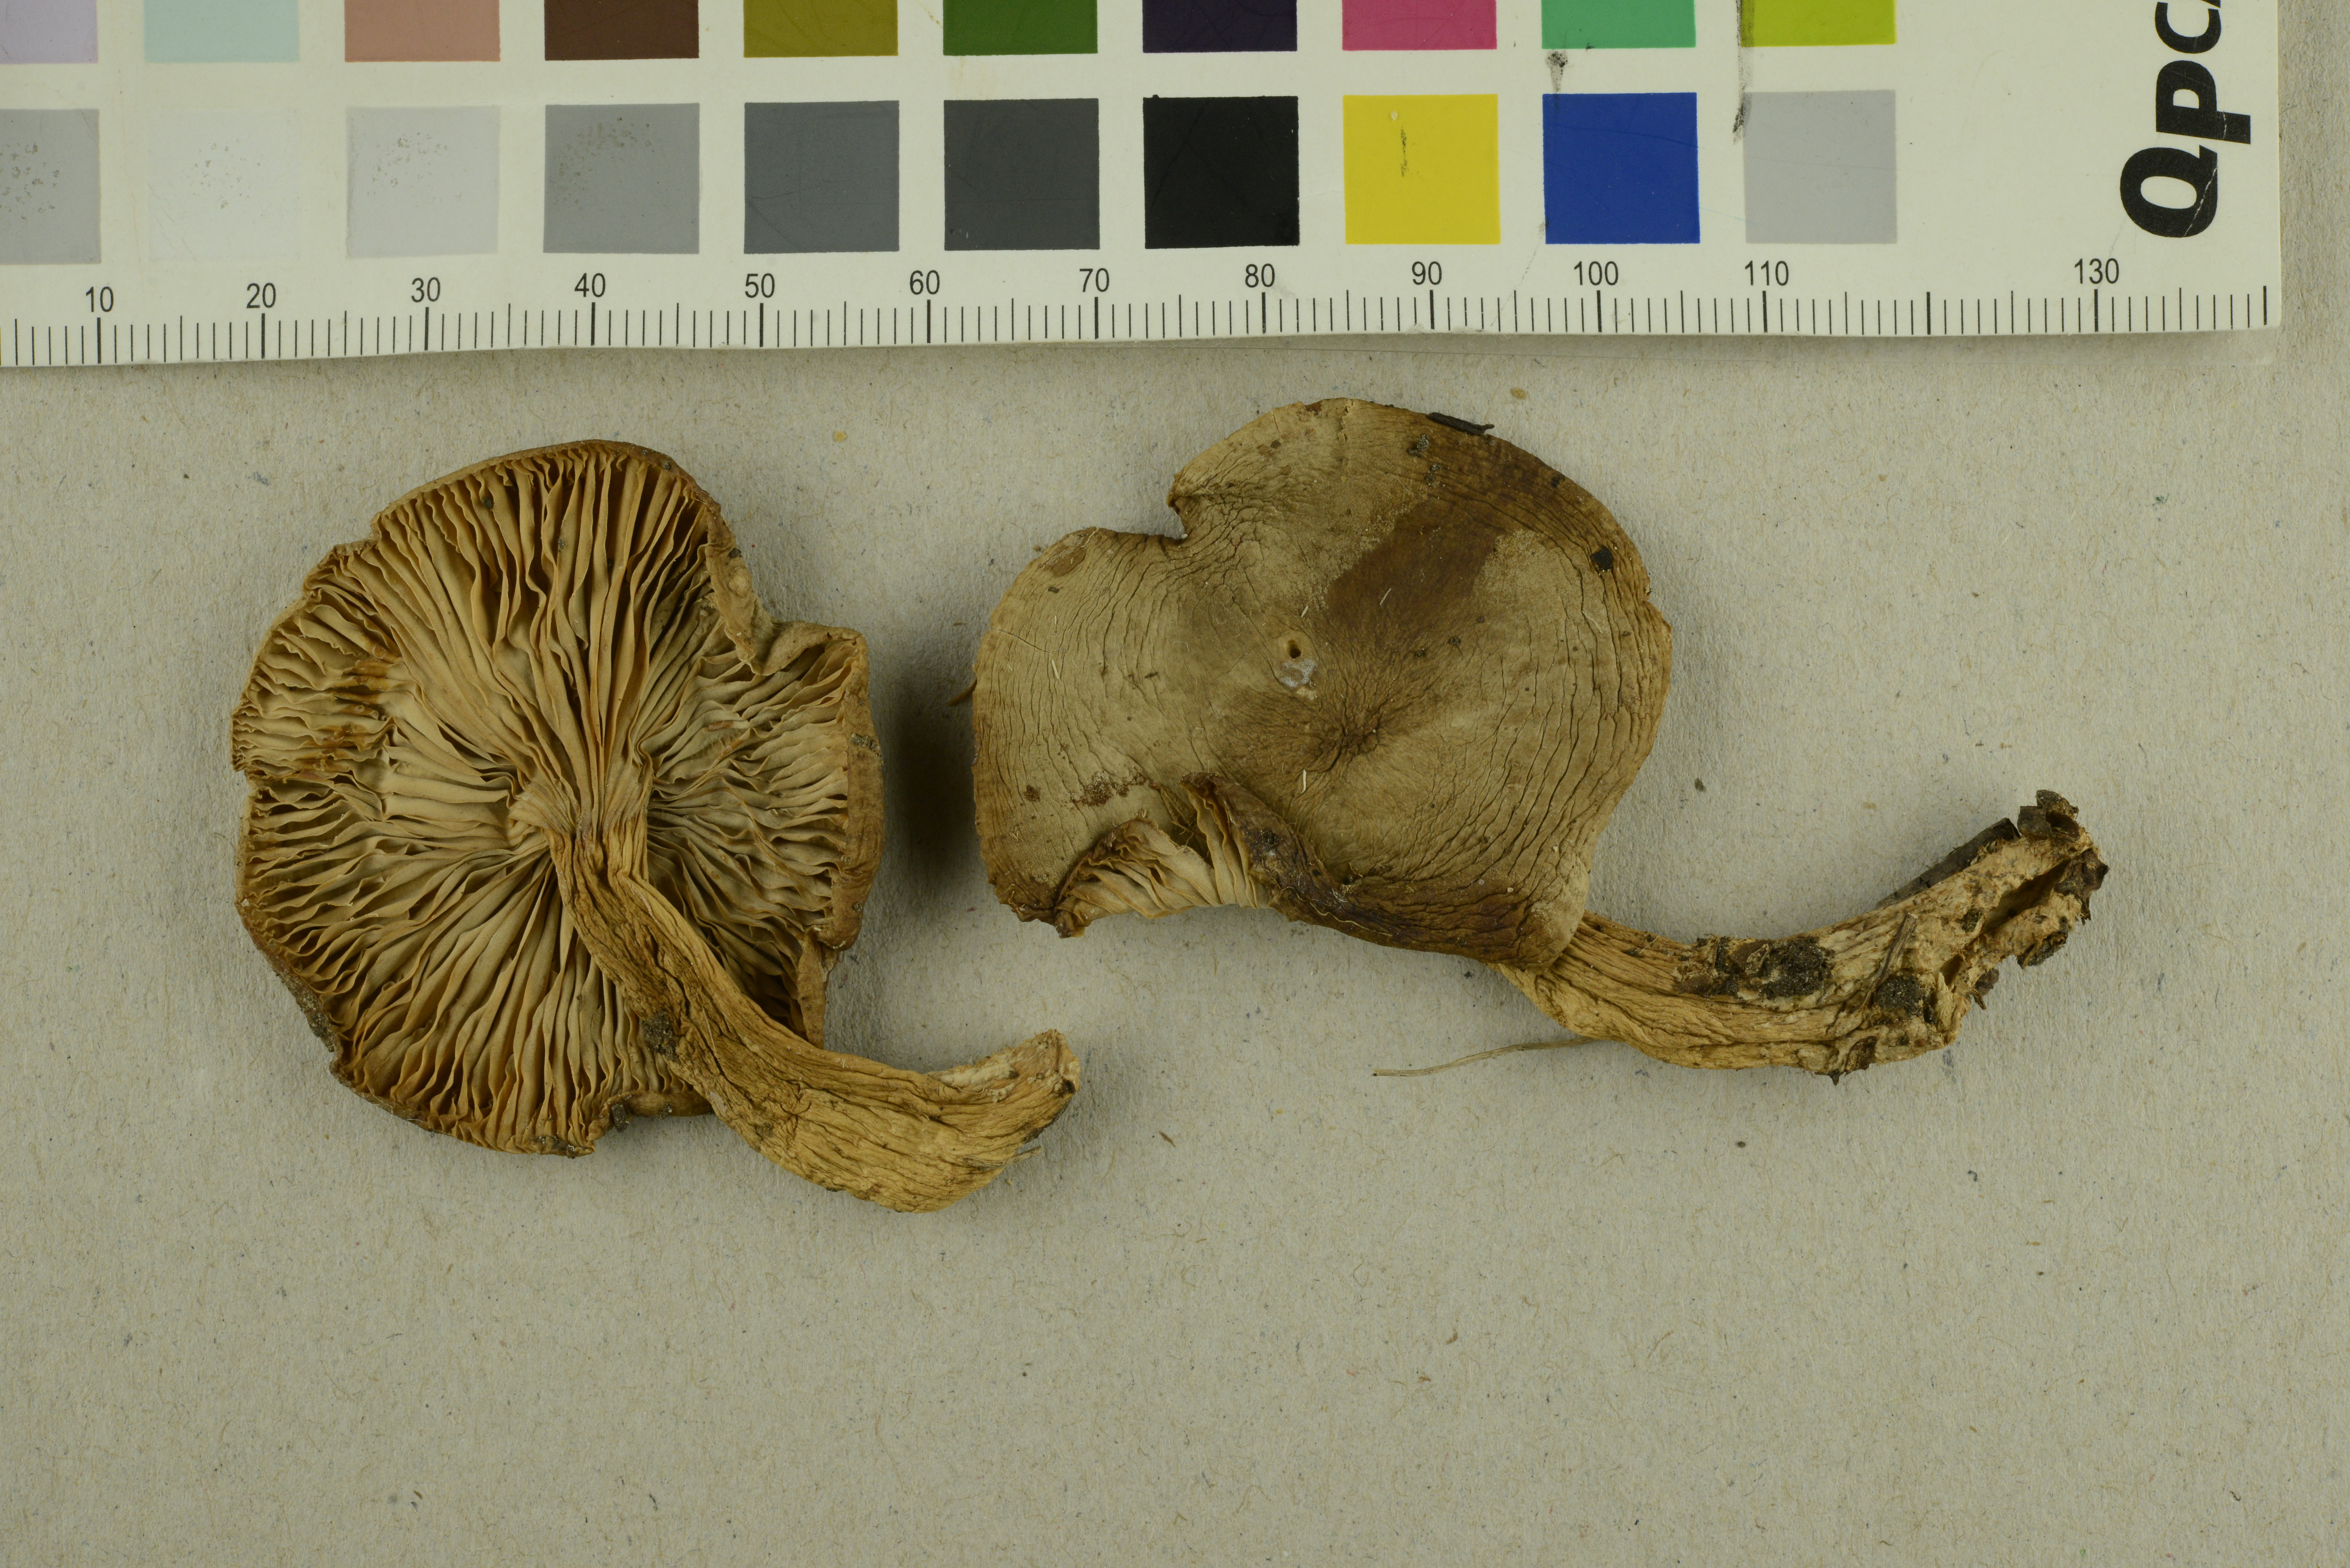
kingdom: Fungi
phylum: Basidiomycota
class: Agaricomycetes
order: Russulales
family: Russulaceae
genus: Lactarius
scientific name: Lactarius subdulcis
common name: Mild milkcap
